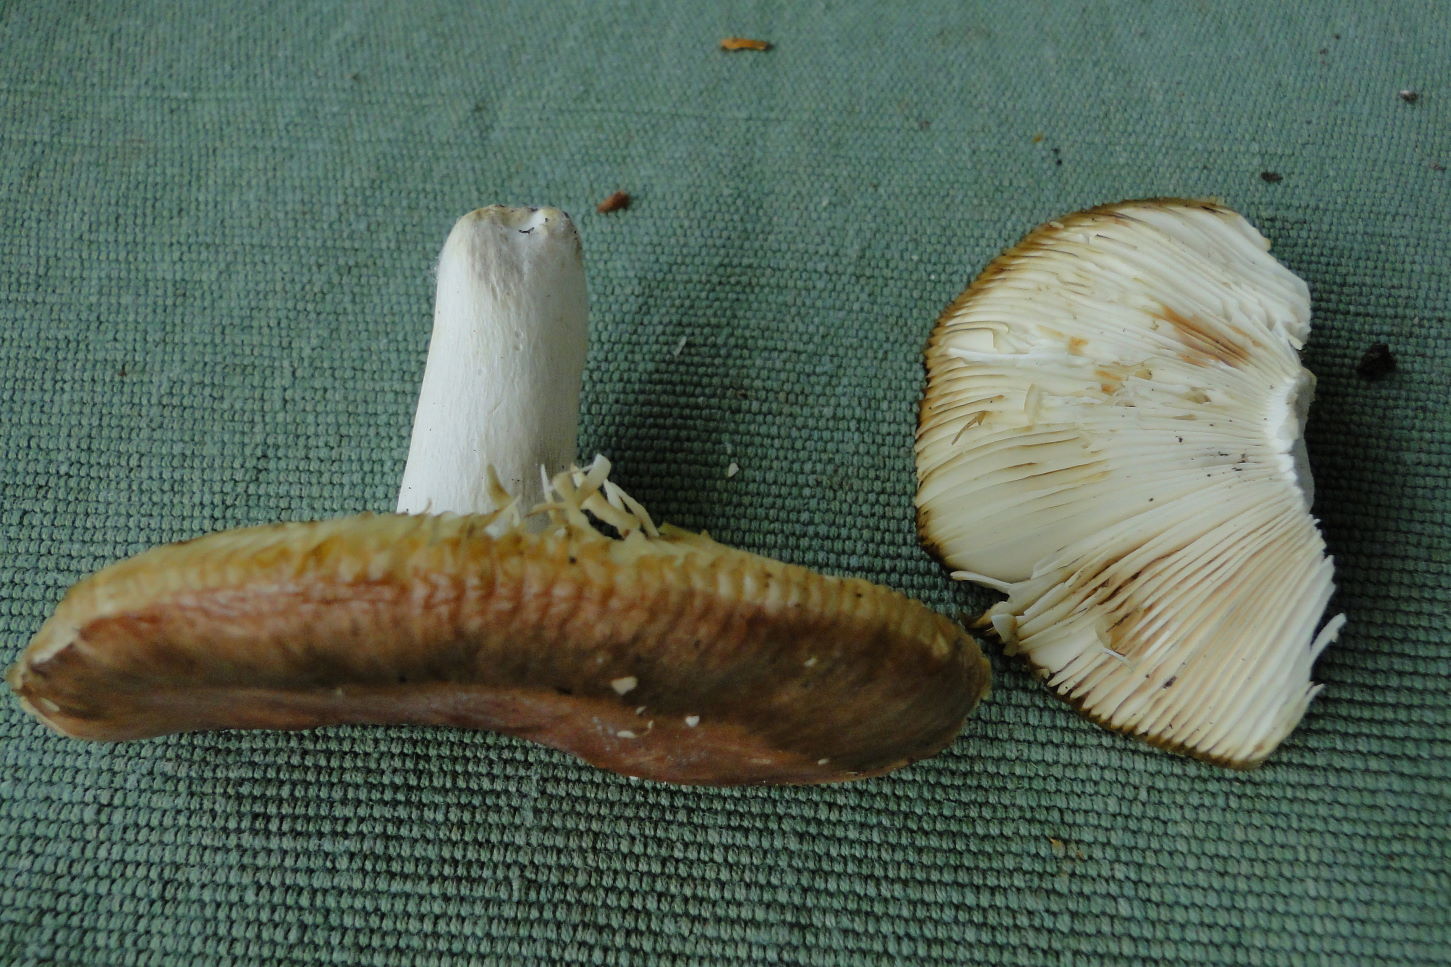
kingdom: Fungi
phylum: Basidiomycota
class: Agaricomycetes
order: Russulales
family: Russulaceae
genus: Russula
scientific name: Russula vesca
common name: spiselig skørhat
